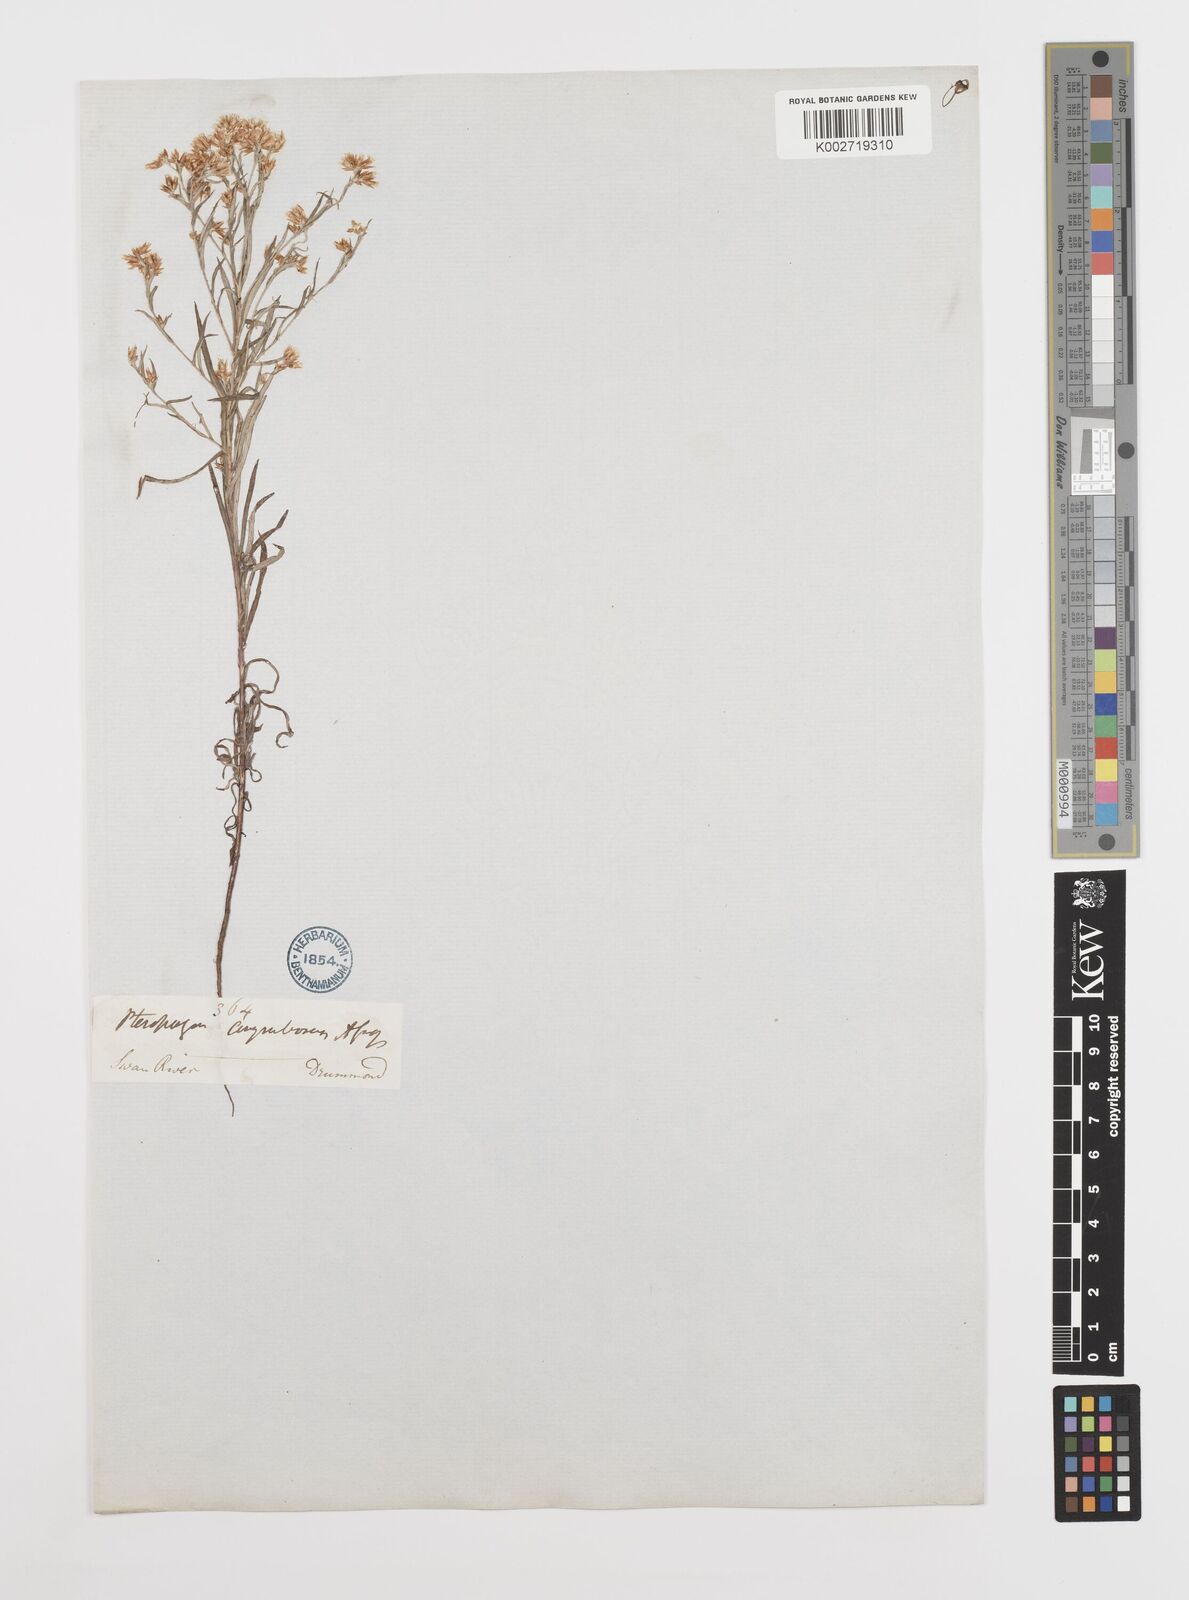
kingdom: Plantae
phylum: Tracheophyta
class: Magnoliopsida
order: Asterales
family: Asteraceae
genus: Rhodanthe
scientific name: Rhodanthe corymbosa
